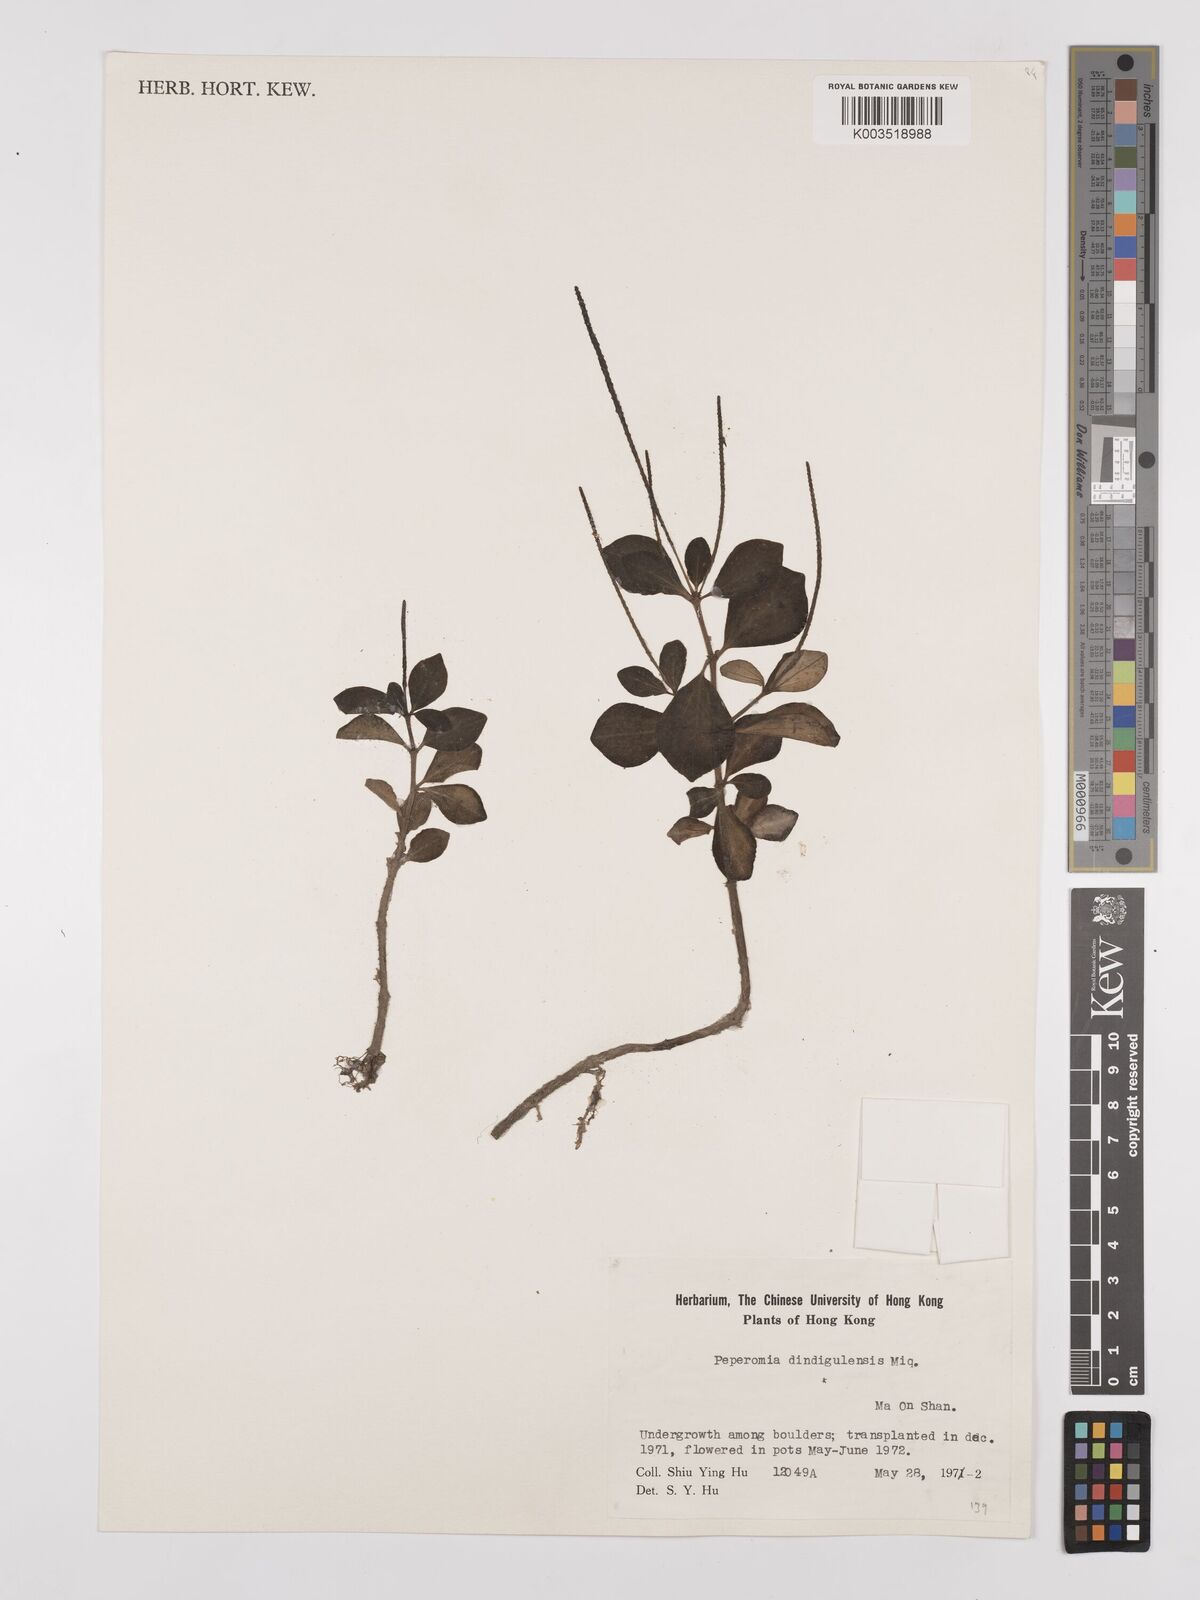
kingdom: Plantae
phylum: Tracheophyta
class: Magnoliopsida
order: Piperales
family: Piperaceae
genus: Peperomia
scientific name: Peperomia leptostachya
